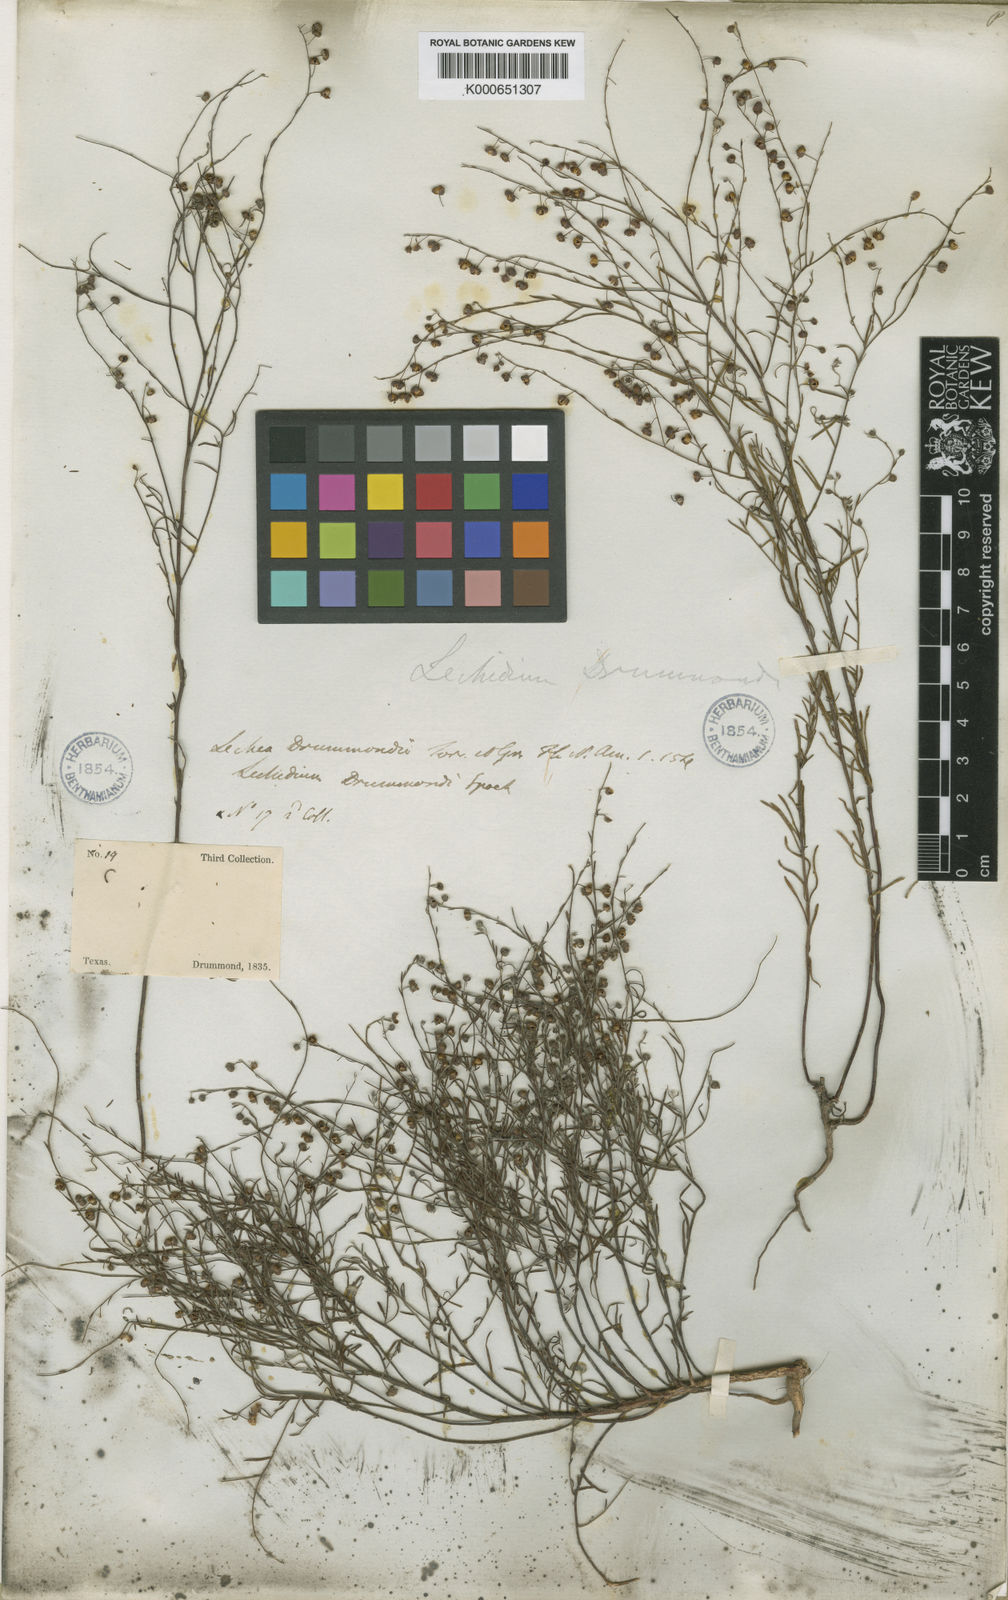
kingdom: Plantae
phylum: Tracheophyta
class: Magnoliopsida
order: Malvales
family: Cistaceae
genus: Lechea
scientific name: Lechea drummondii
